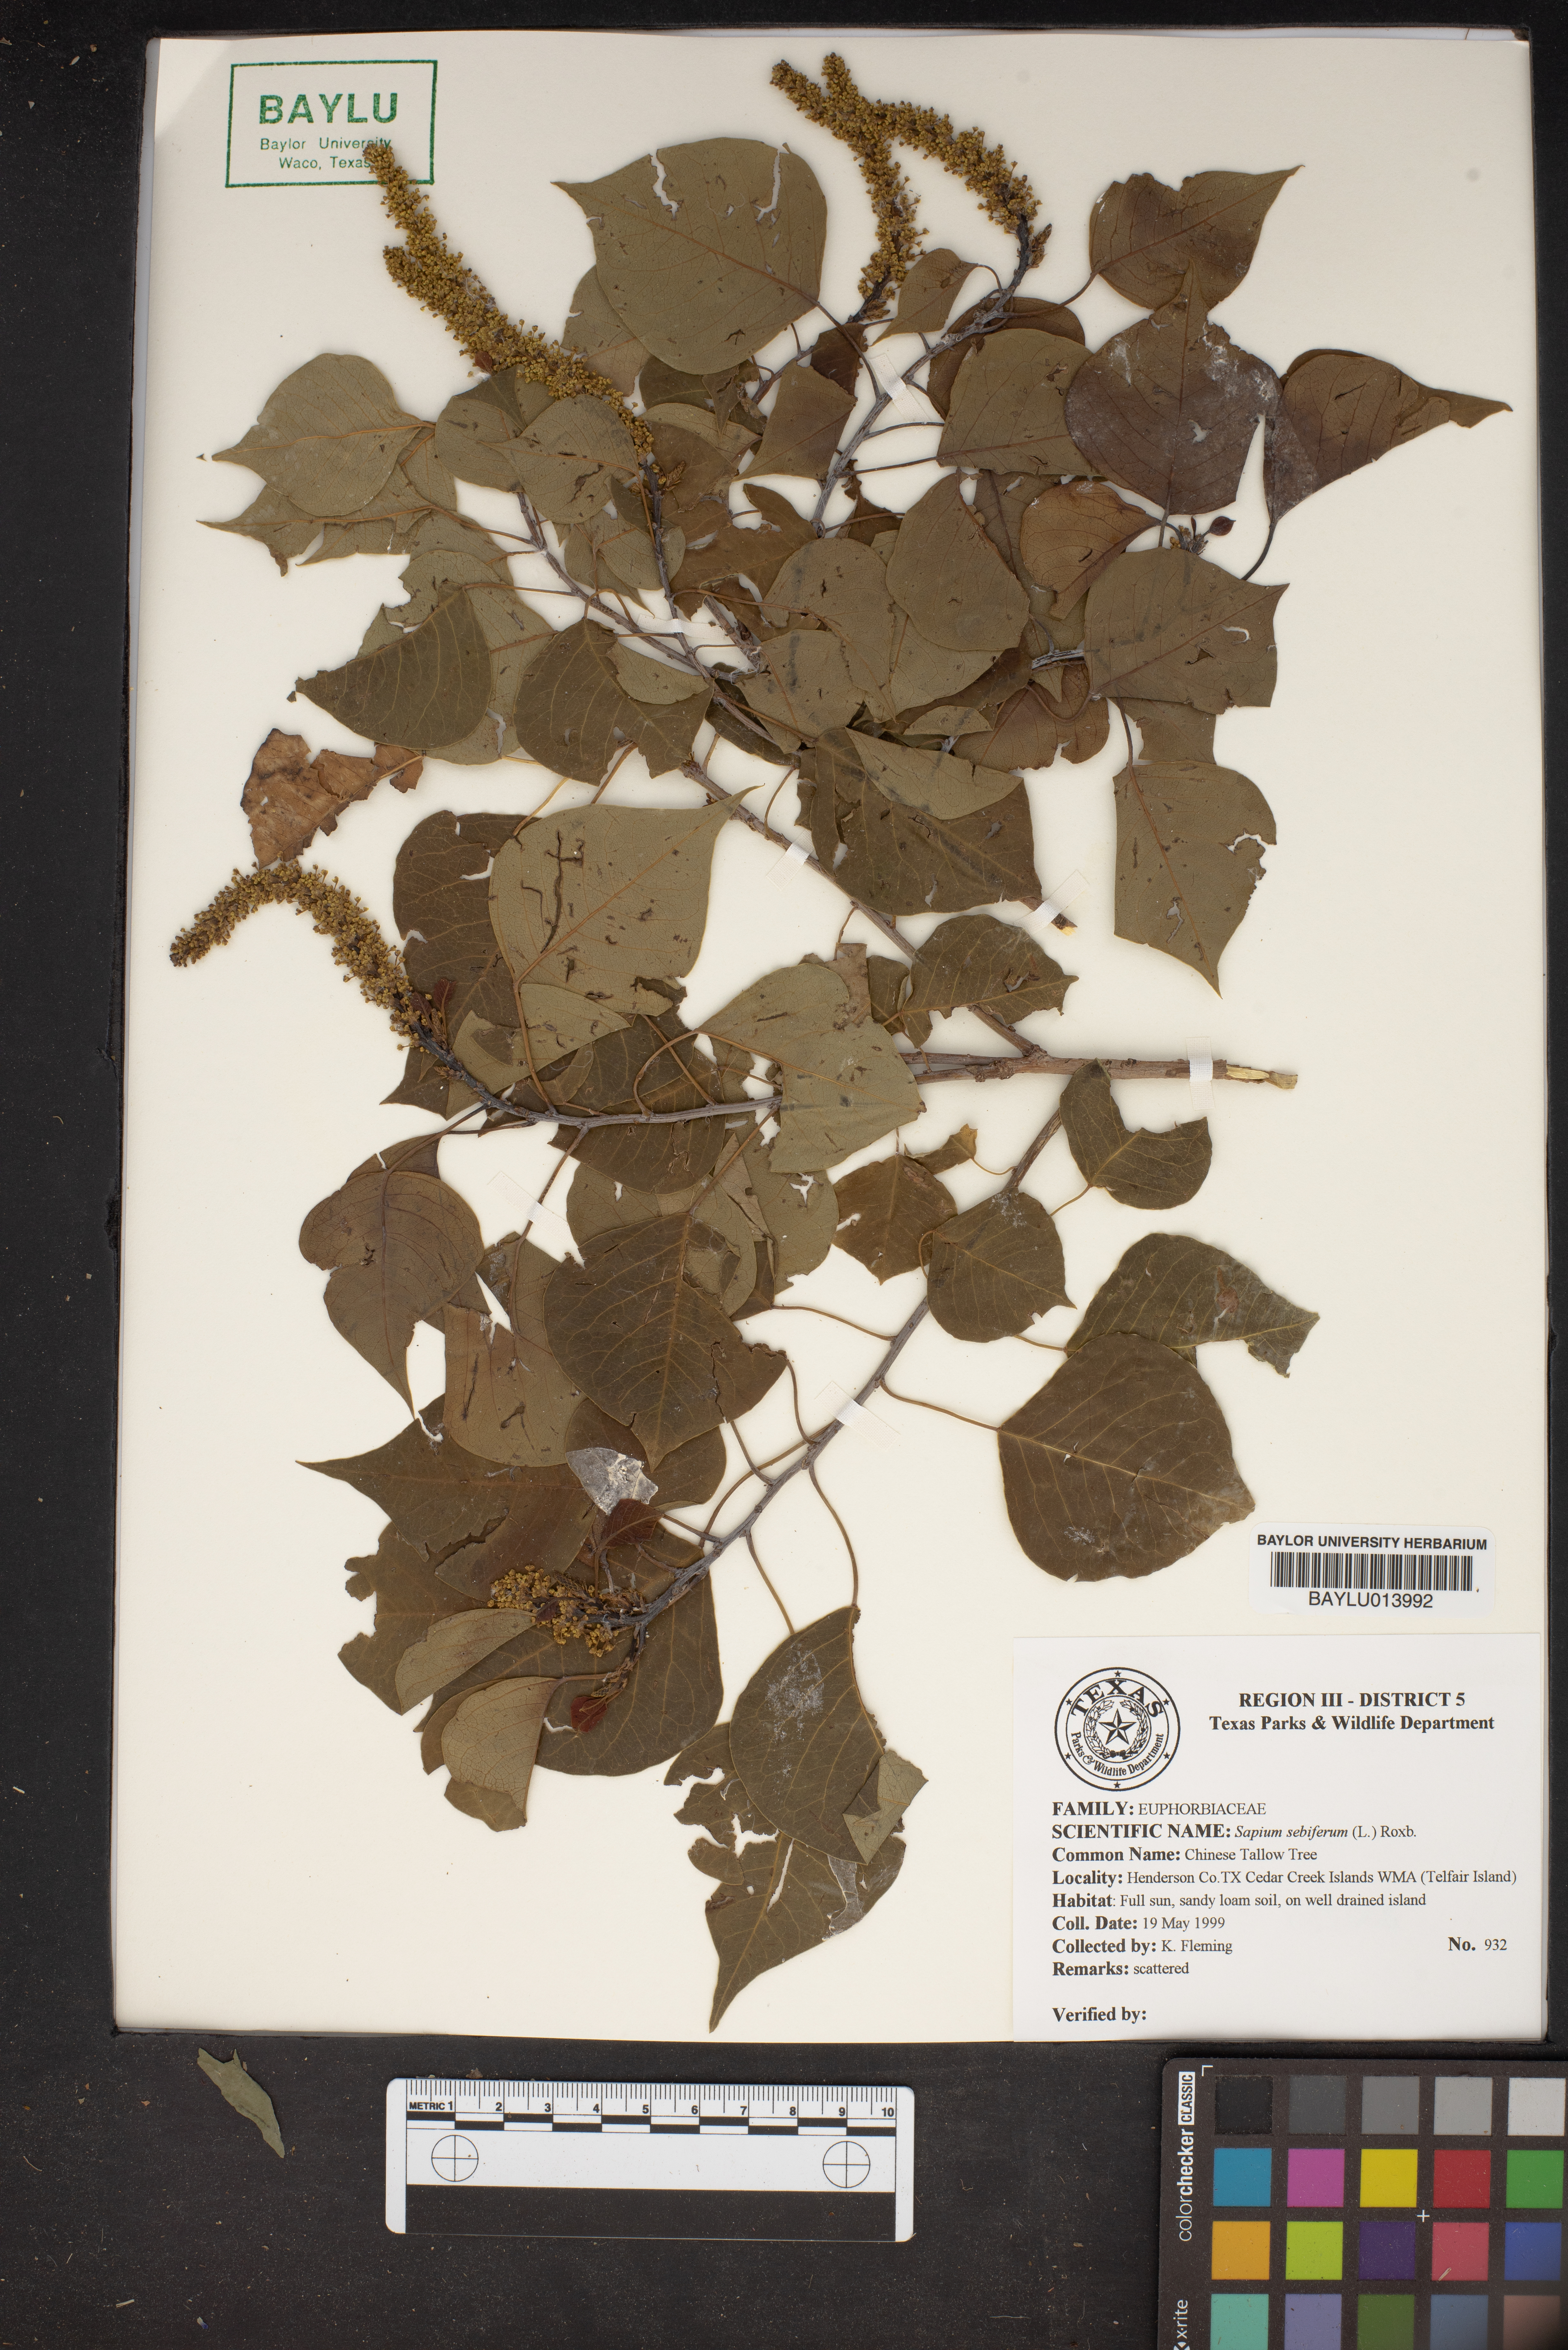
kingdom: Plantae
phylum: Tracheophyta
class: Magnoliopsida
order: Malpighiales
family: Euphorbiaceae
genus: Triadica
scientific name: Triadica sebifera
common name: Chinese tallow
